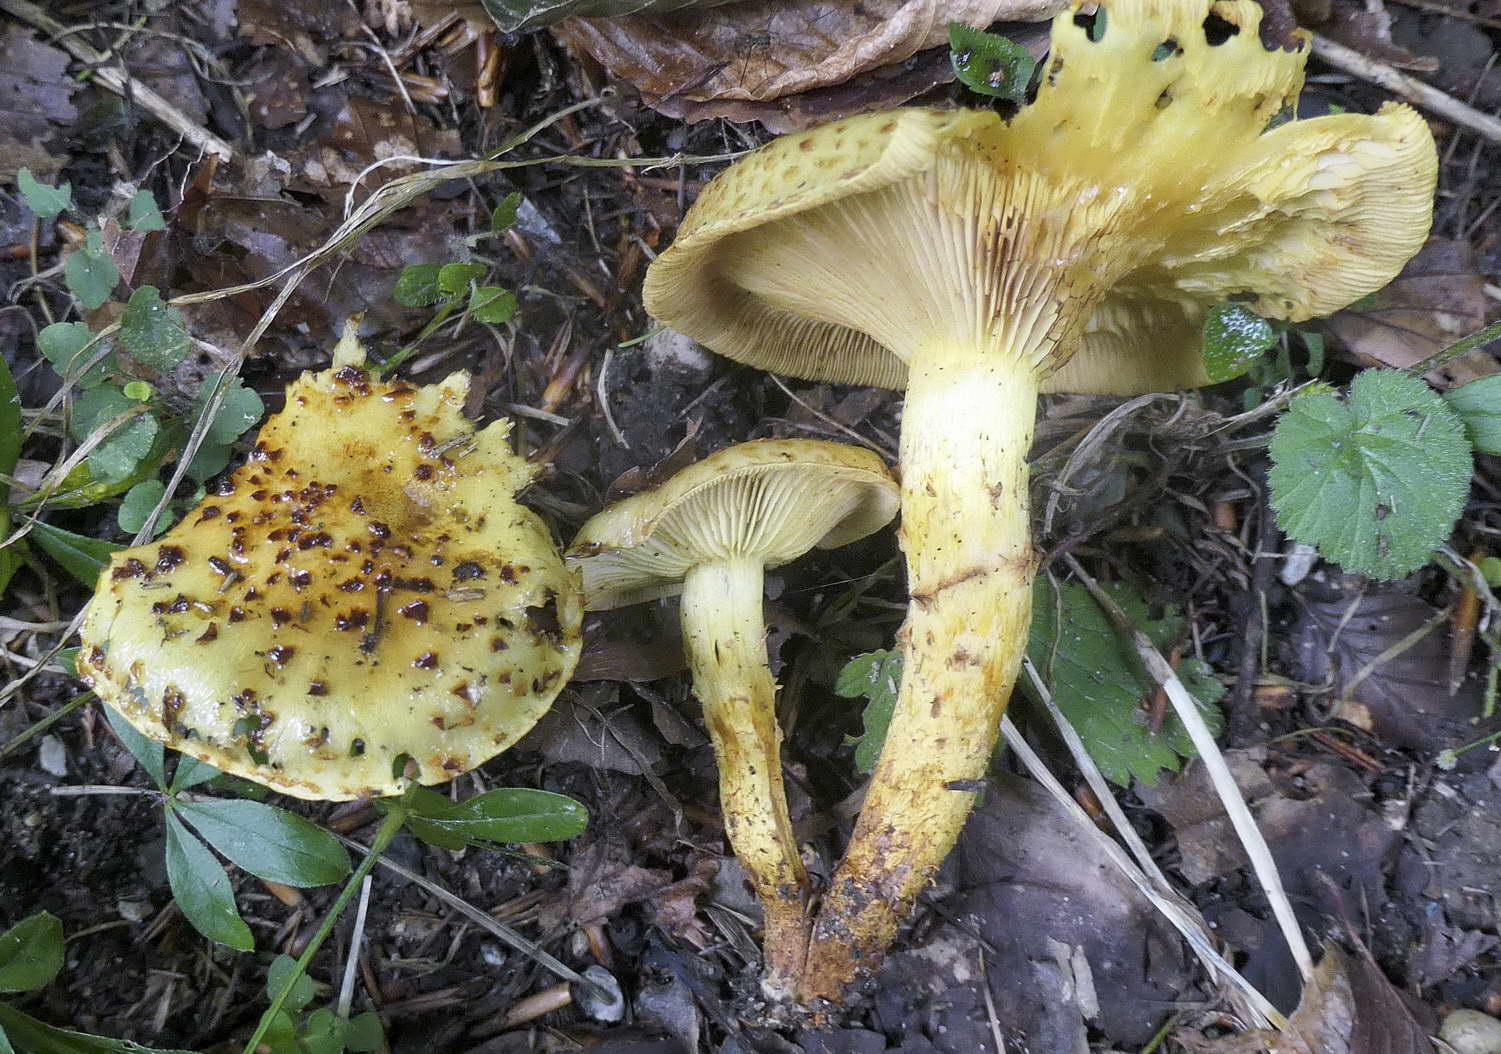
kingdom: Fungi
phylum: Basidiomycota
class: Agaricomycetes
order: Agaricales
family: Strophariaceae
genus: Pholiota
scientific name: Pholiota jahnii
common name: slimet skælhat
